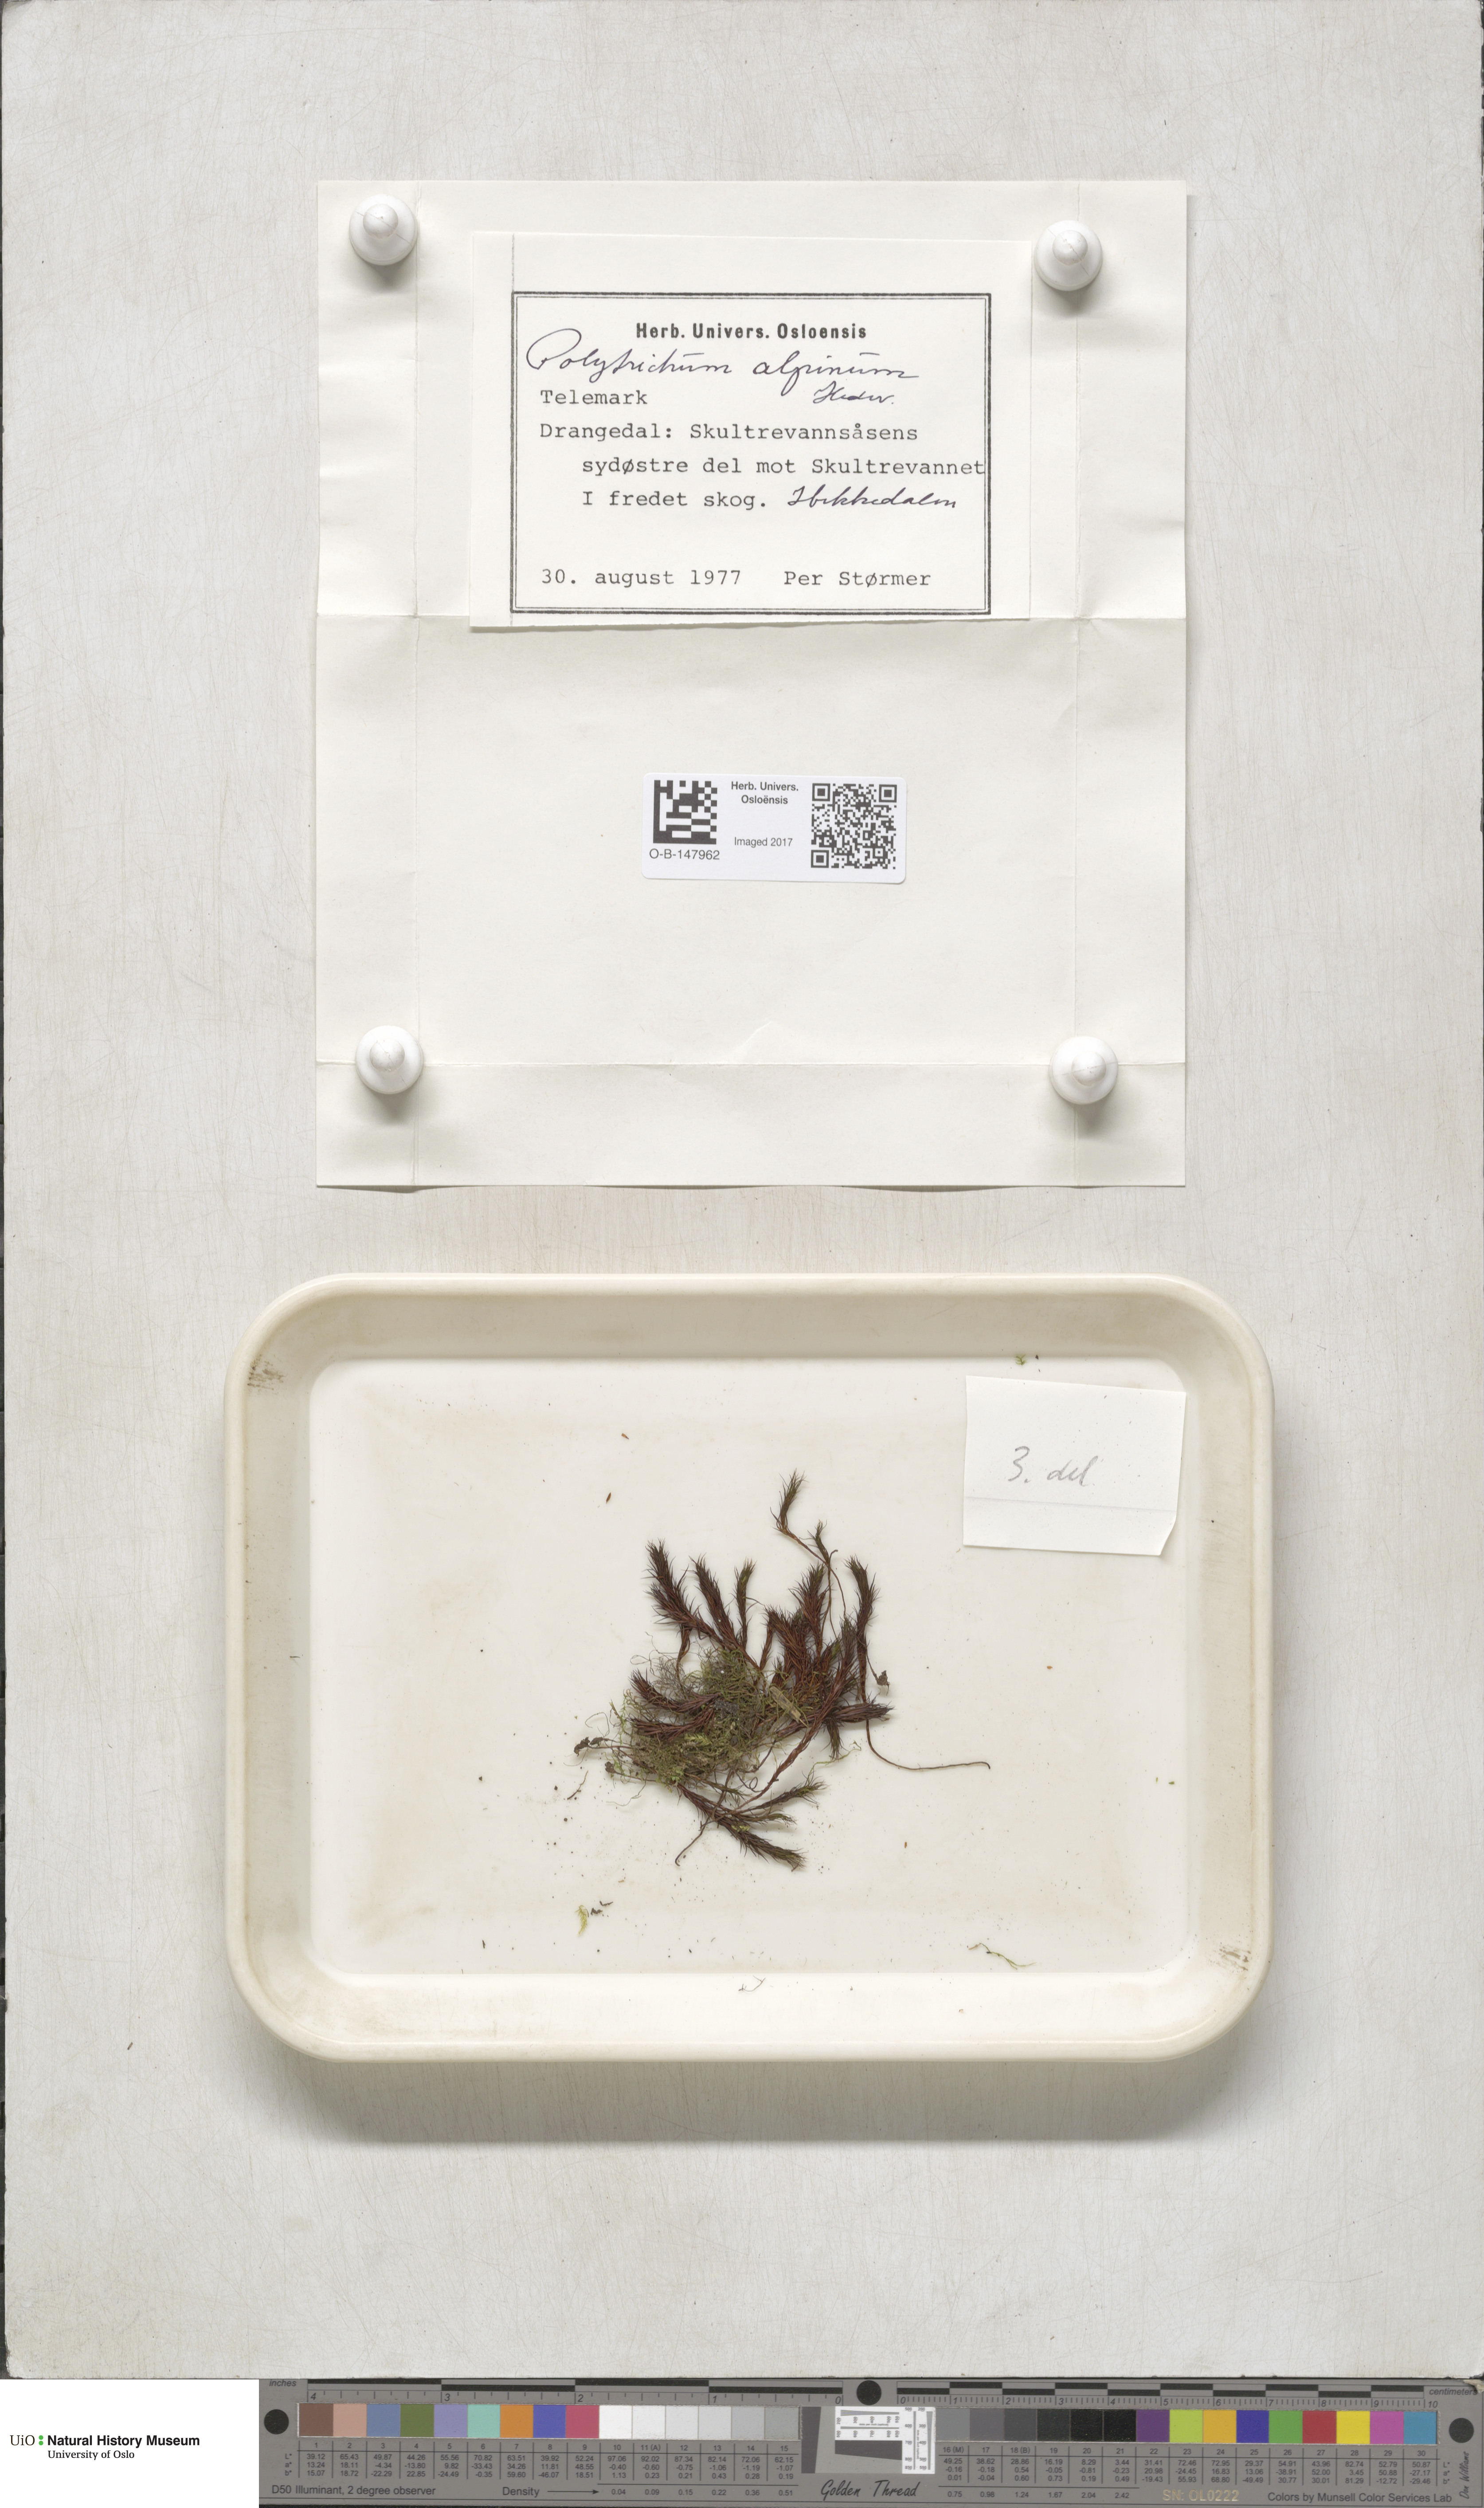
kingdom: Plantae
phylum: Bryophyta
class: Polytrichopsida
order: Polytrichales
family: Polytrichaceae
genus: Polytrichastrum
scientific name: Polytrichastrum alpinum
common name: Alpine haircap
